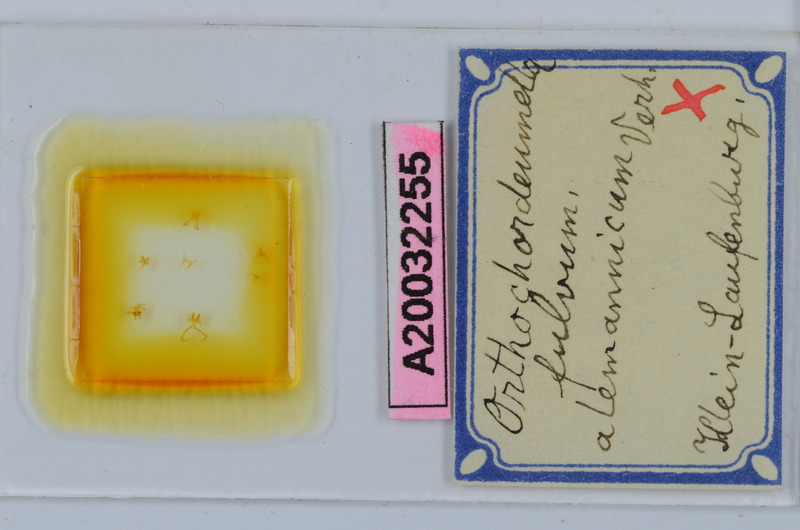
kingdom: Animalia
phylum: Arthropoda
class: Diplopoda
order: Chordeumatida
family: Chordeumatidae
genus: Orthochordeumella
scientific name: Orthochordeumella fulva
